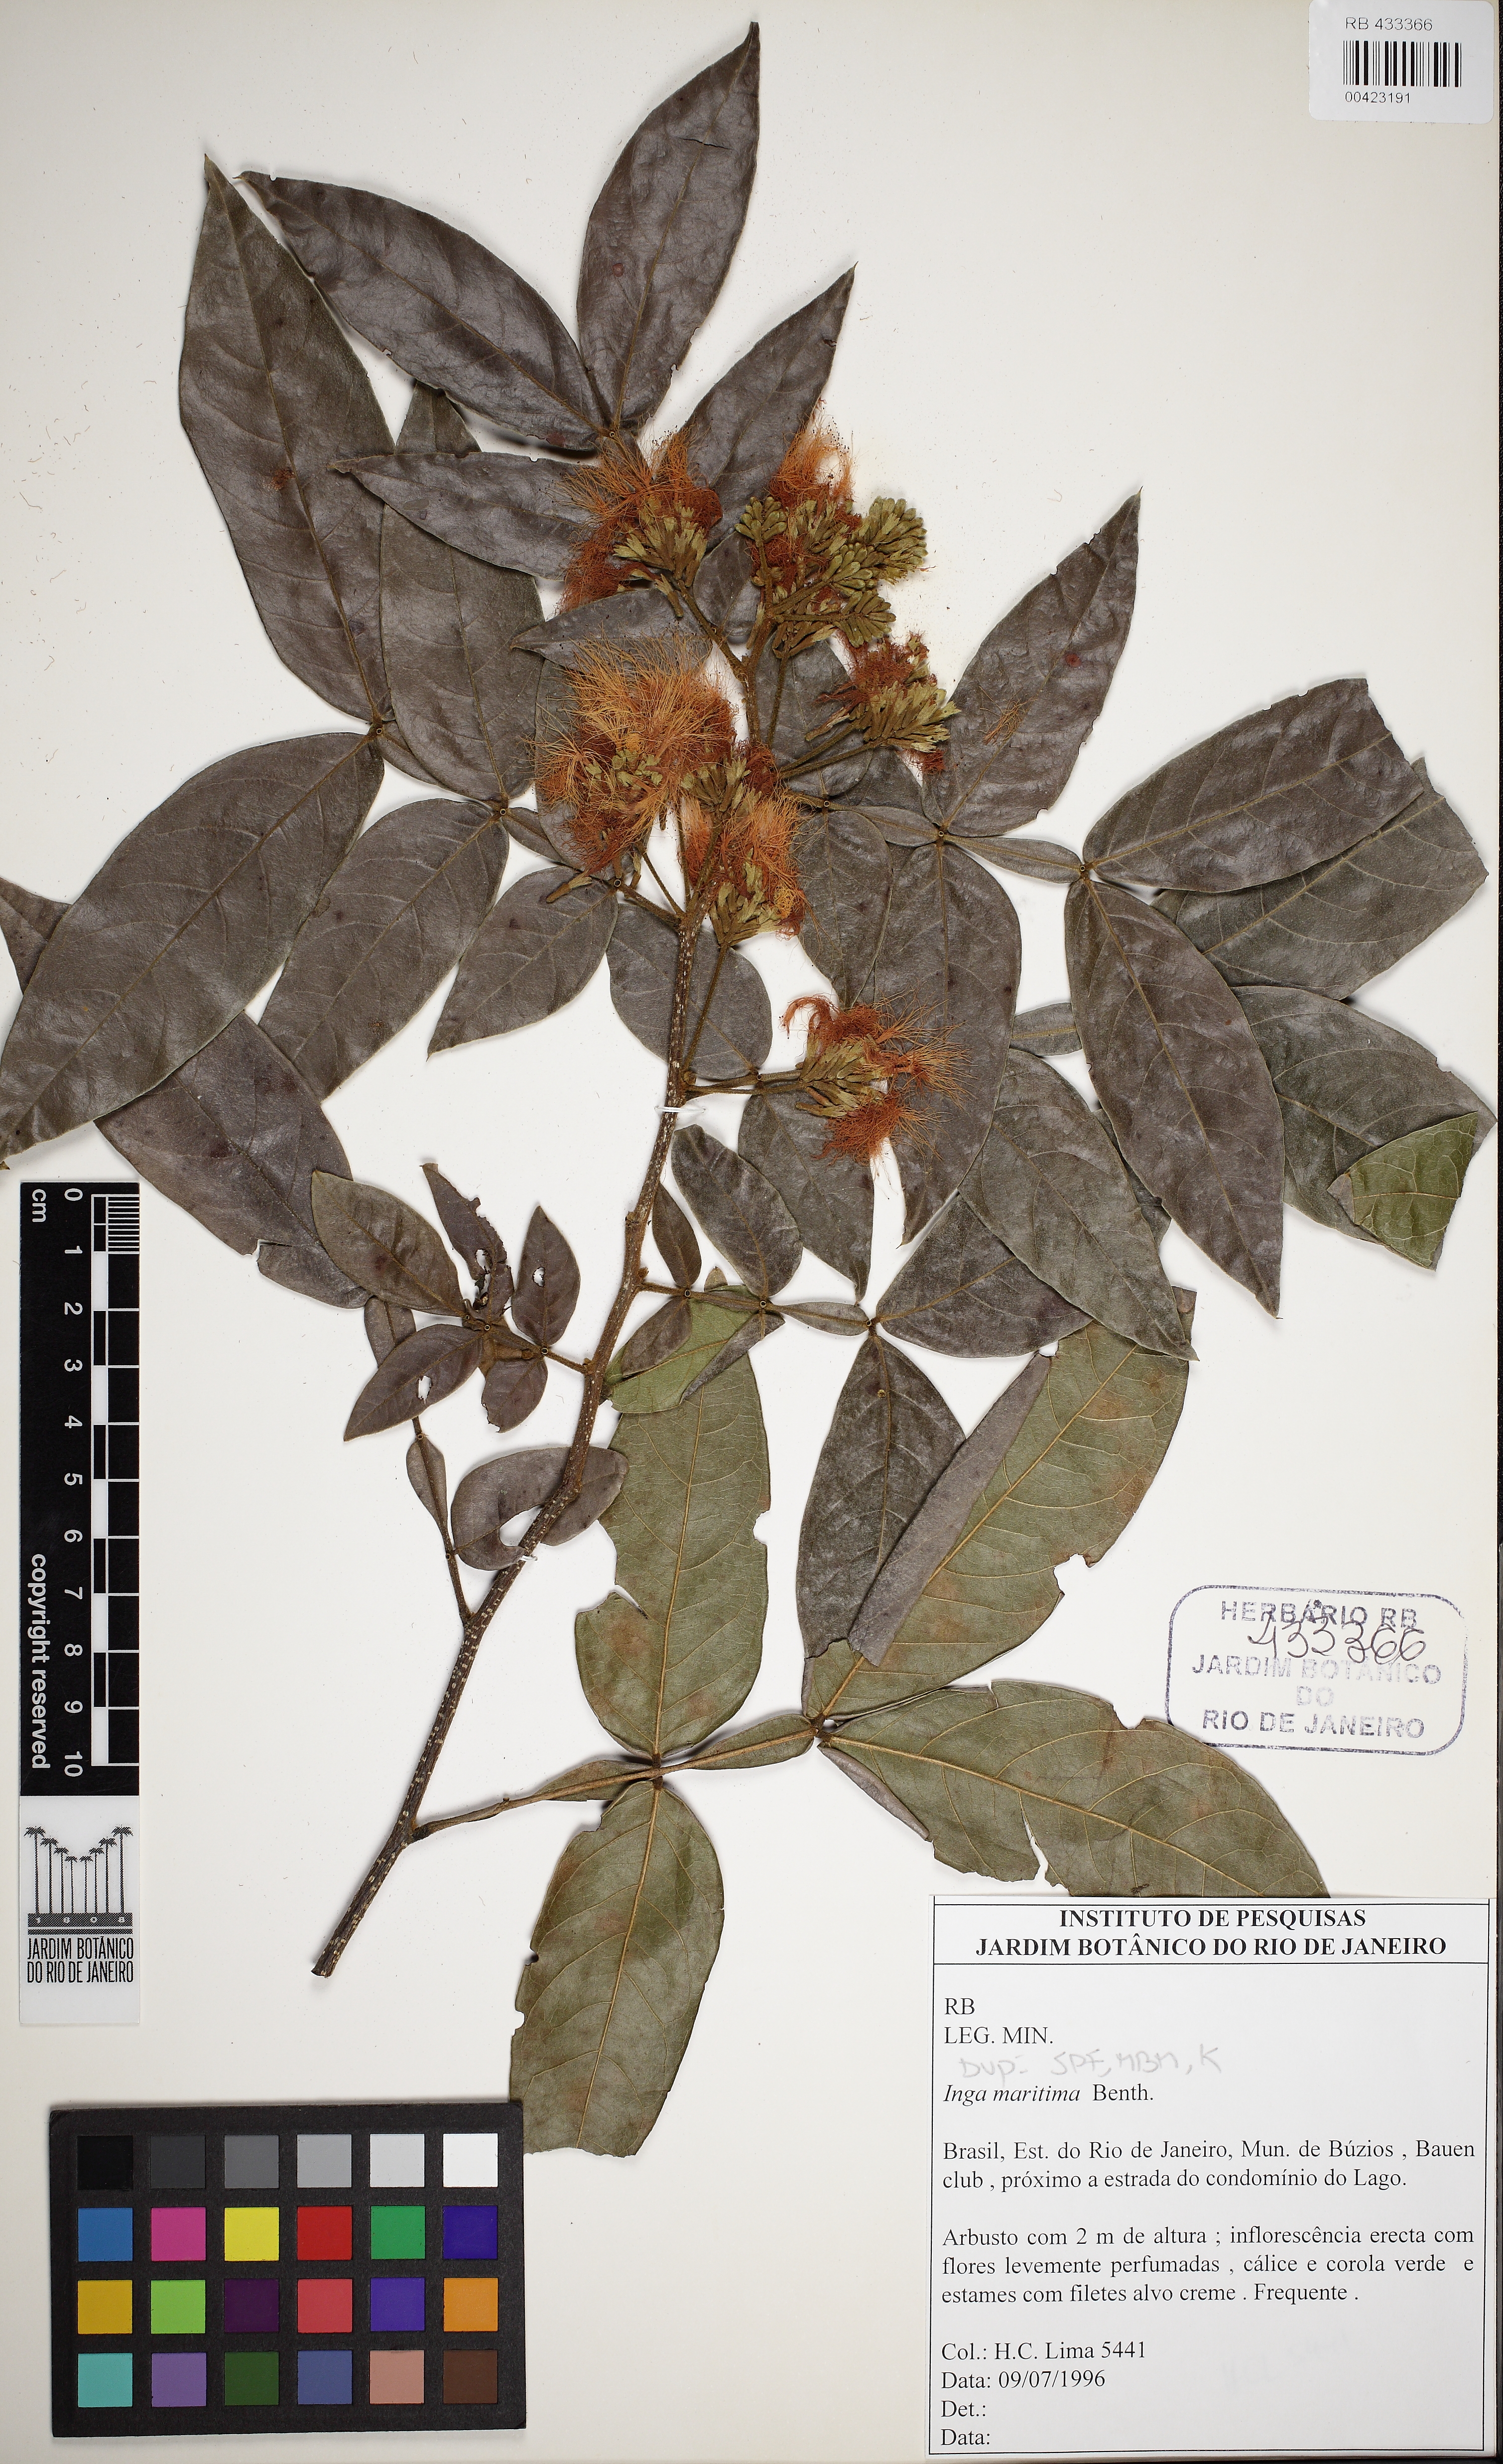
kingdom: Plantae
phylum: Tracheophyta
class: Magnoliopsida
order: Fabales
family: Fabaceae
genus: Inga
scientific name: Inga maritima
